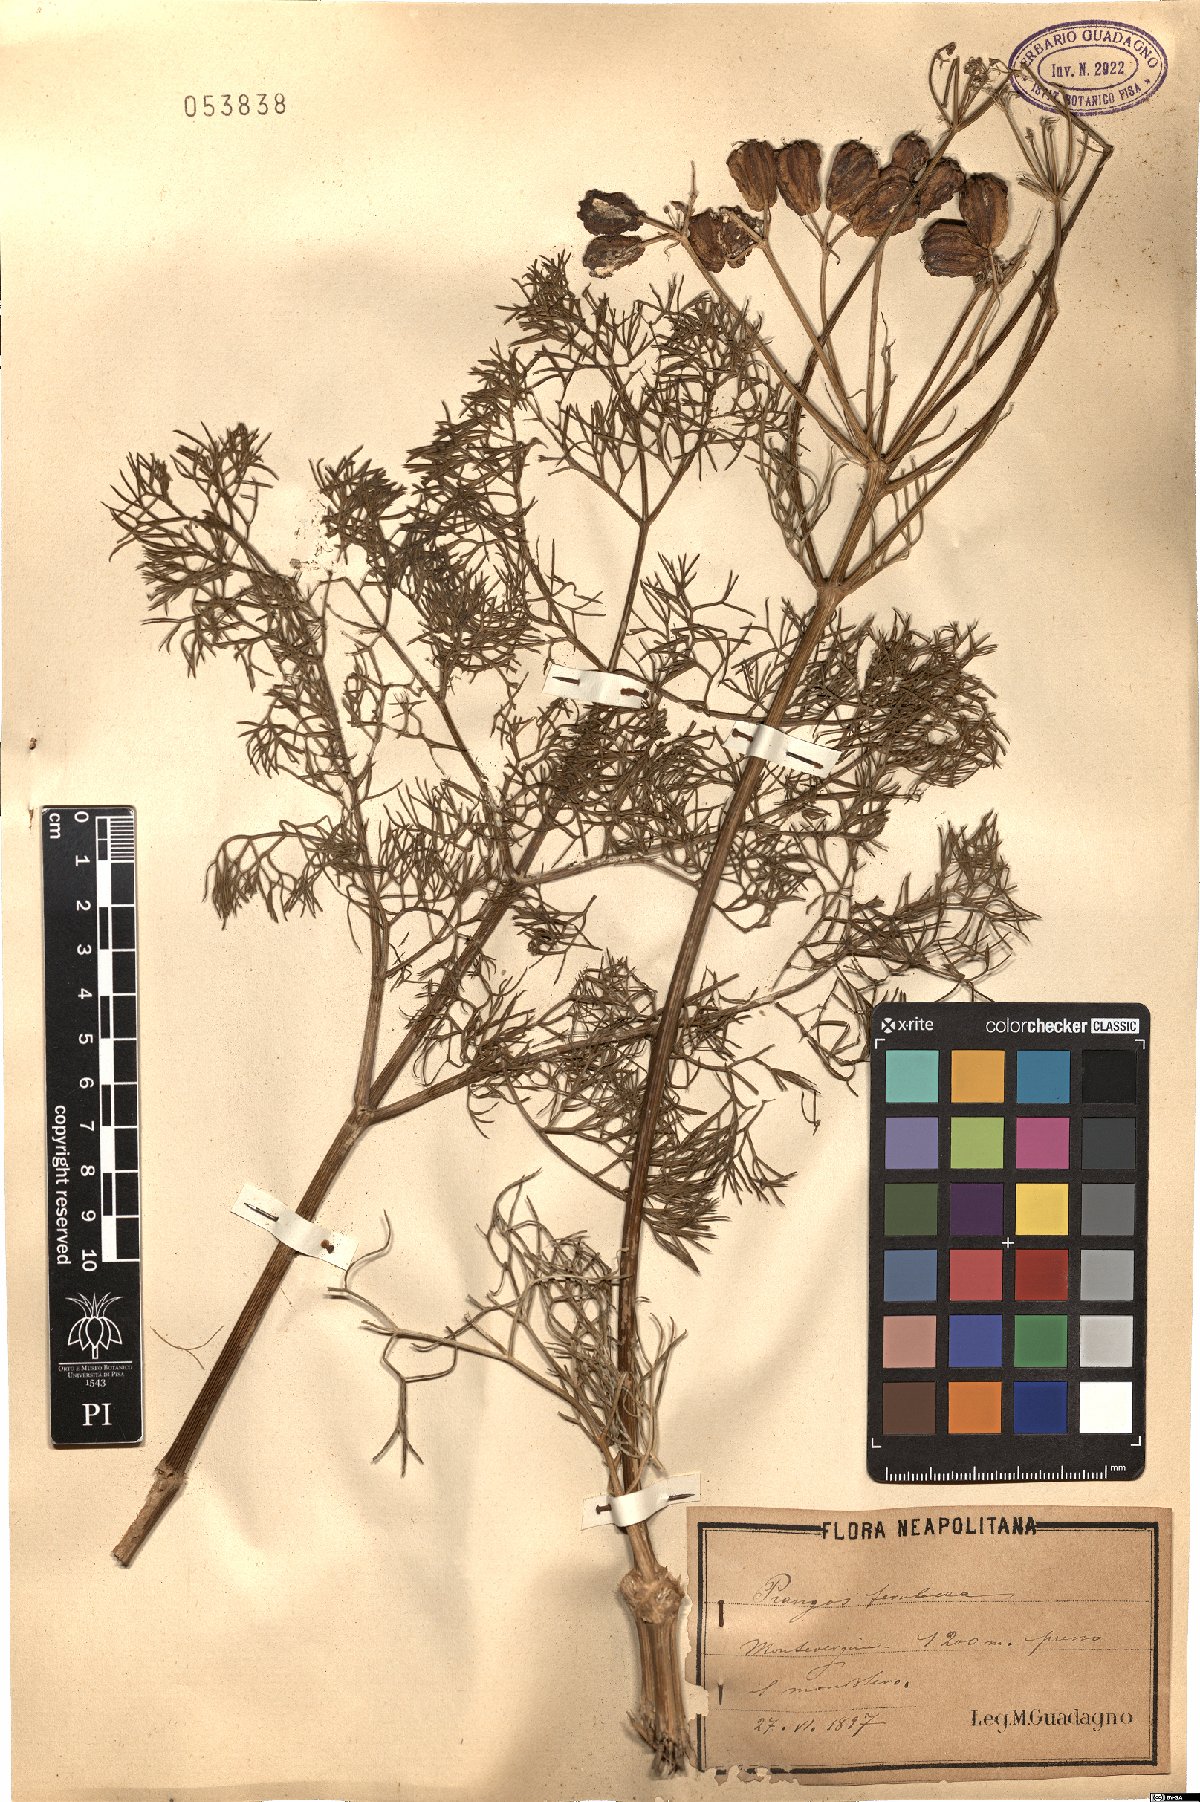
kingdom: Plantae
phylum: Tracheophyta
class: Magnoliopsida
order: Apiales
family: Apiaceae
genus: Prangos
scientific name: Prangos ferulacea
